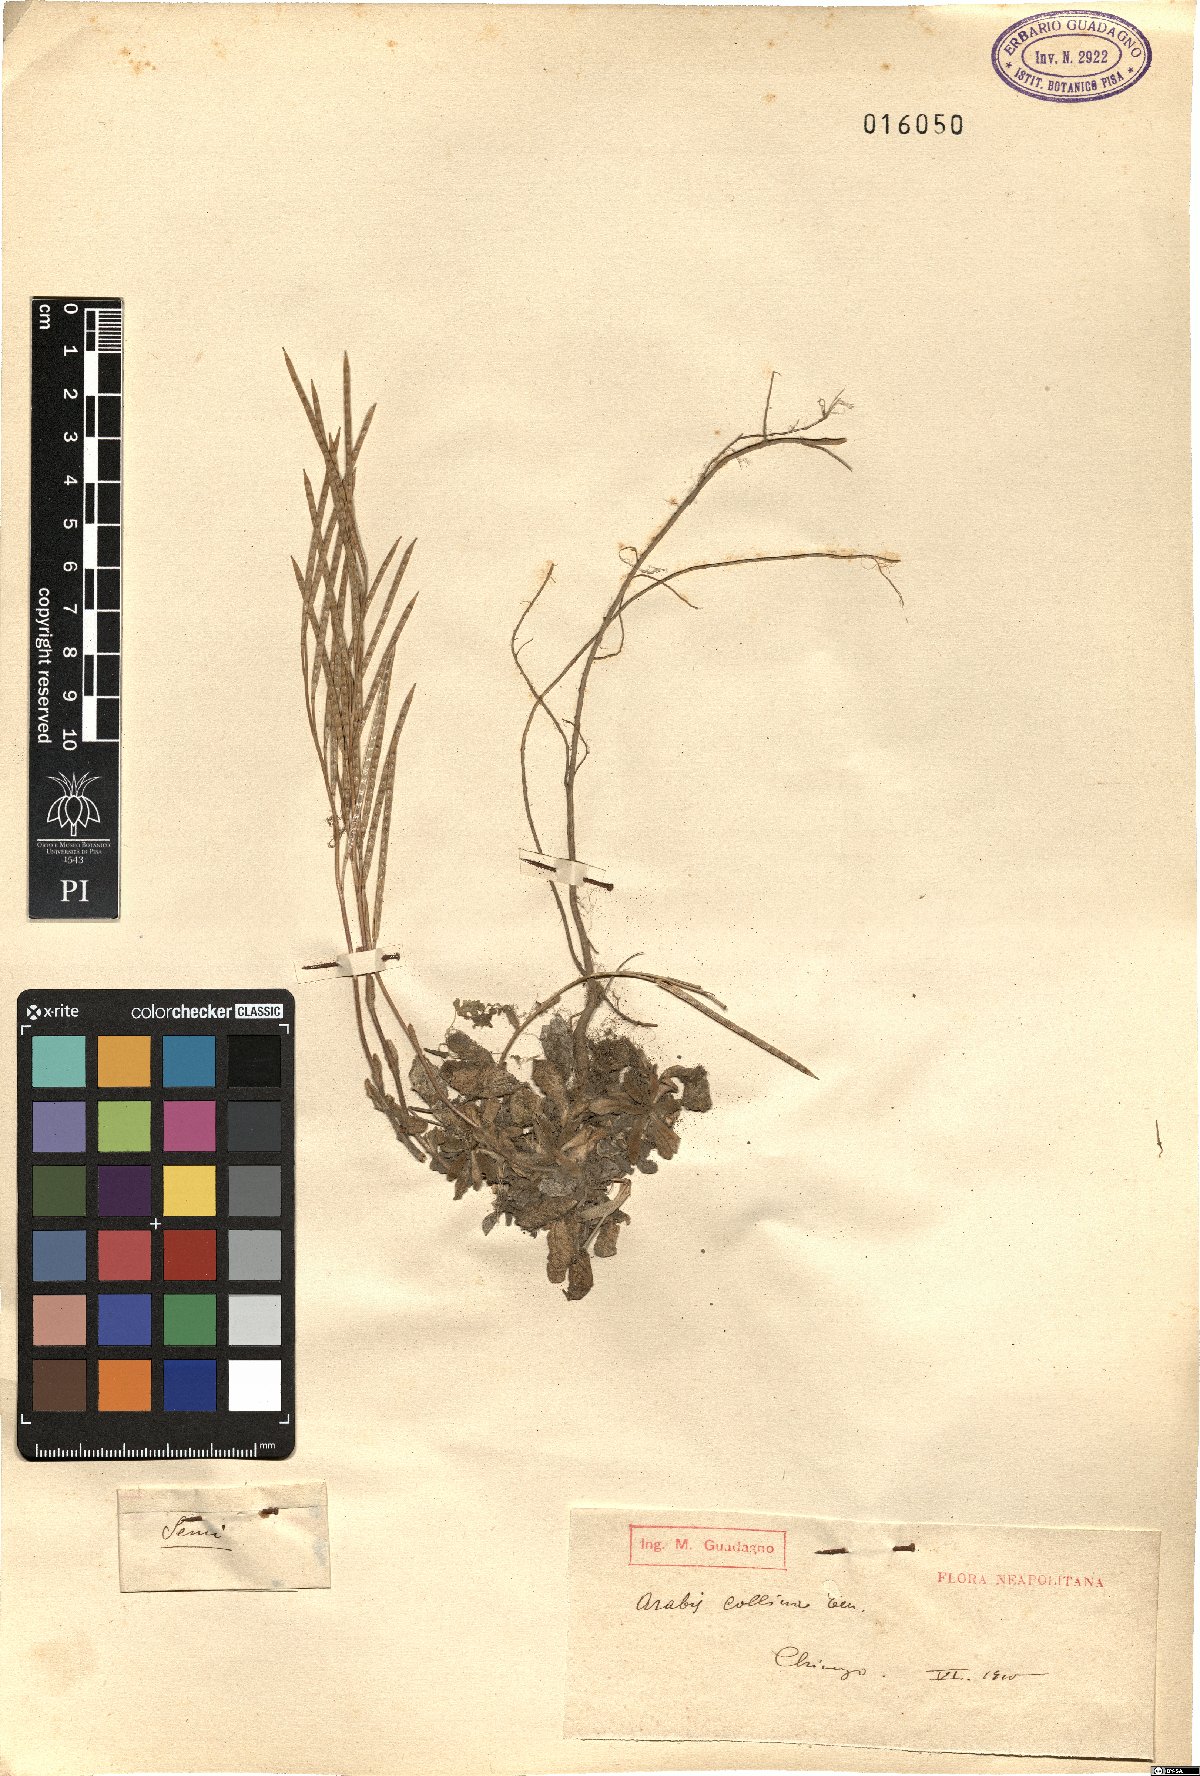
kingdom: Plantae
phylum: Tracheophyta
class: Magnoliopsida
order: Brassicales
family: Brassicaceae
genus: Arabis
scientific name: Arabis collina
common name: Rosy cress
